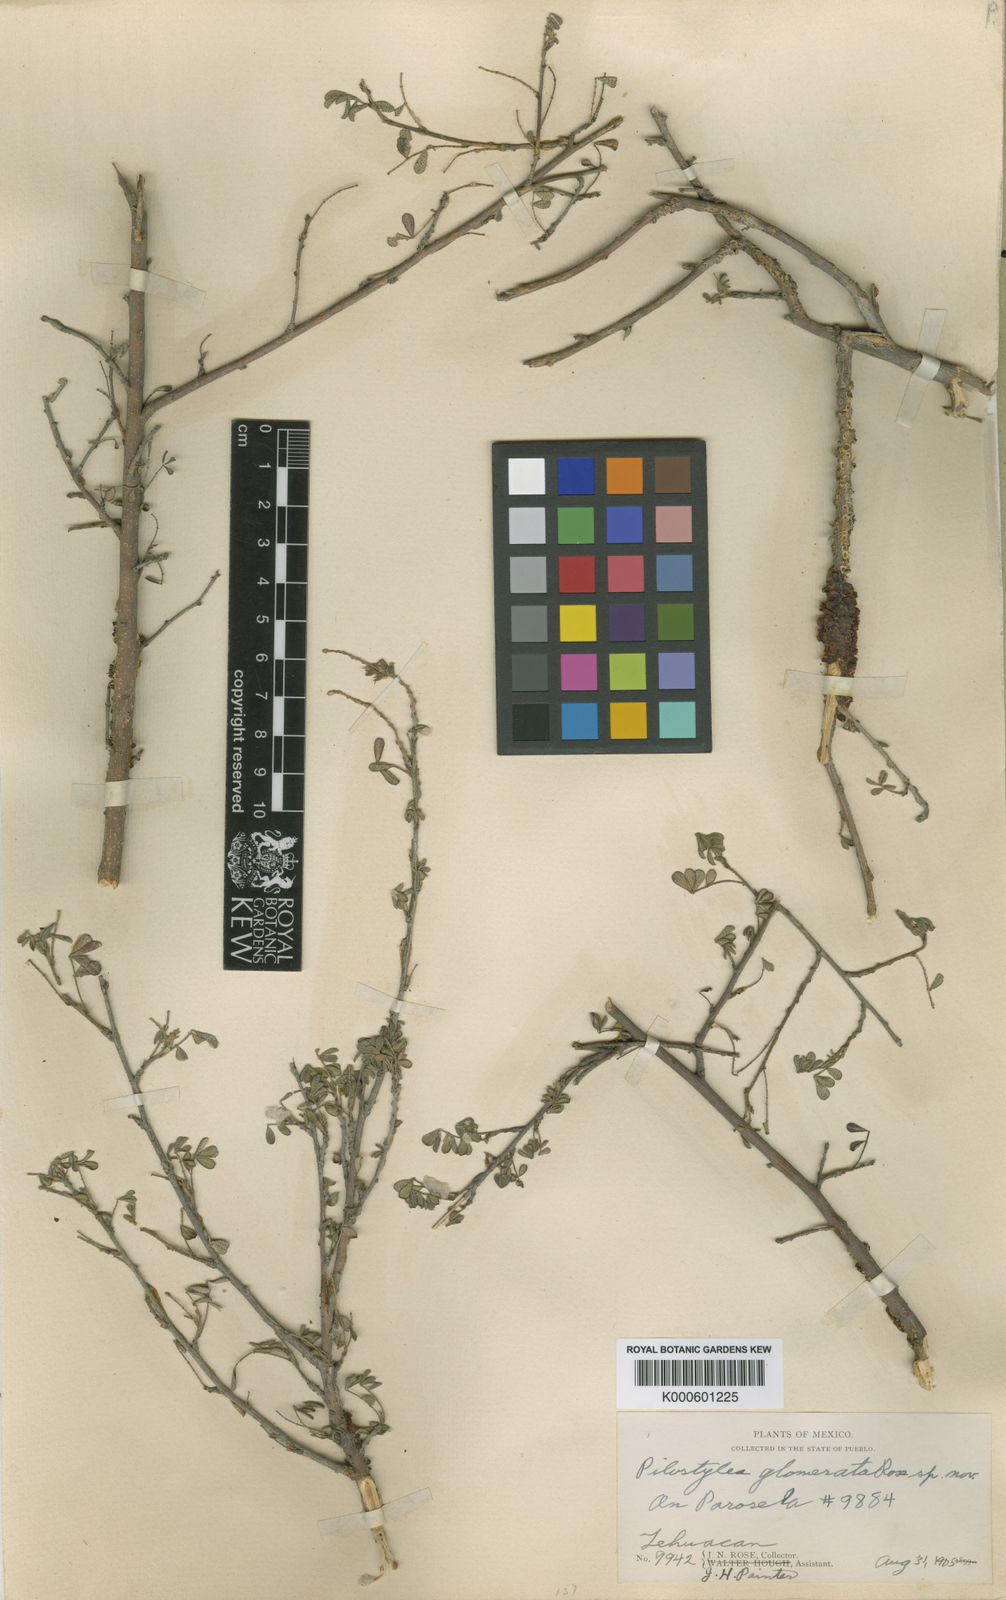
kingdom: Plantae
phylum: Tracheophyta
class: Magnoliopsida
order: Cucurbitales
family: Apodanthaceae
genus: Pilostyles
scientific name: Pilostyles thurberi
